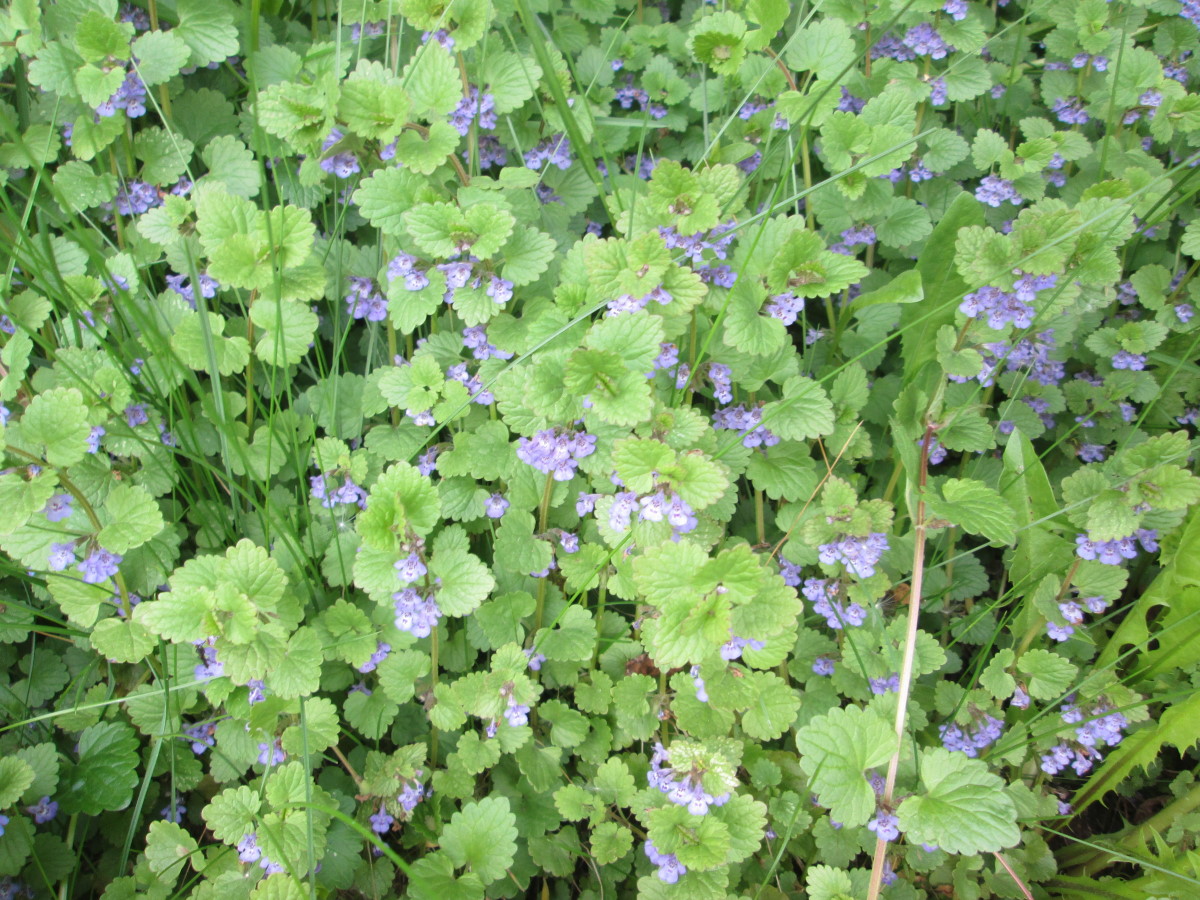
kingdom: Plantae
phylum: Tracheophyta
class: Magnoliopsida
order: Lamiales
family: Lamiaceae
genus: Glechoma
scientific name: Glechoma hederacea
